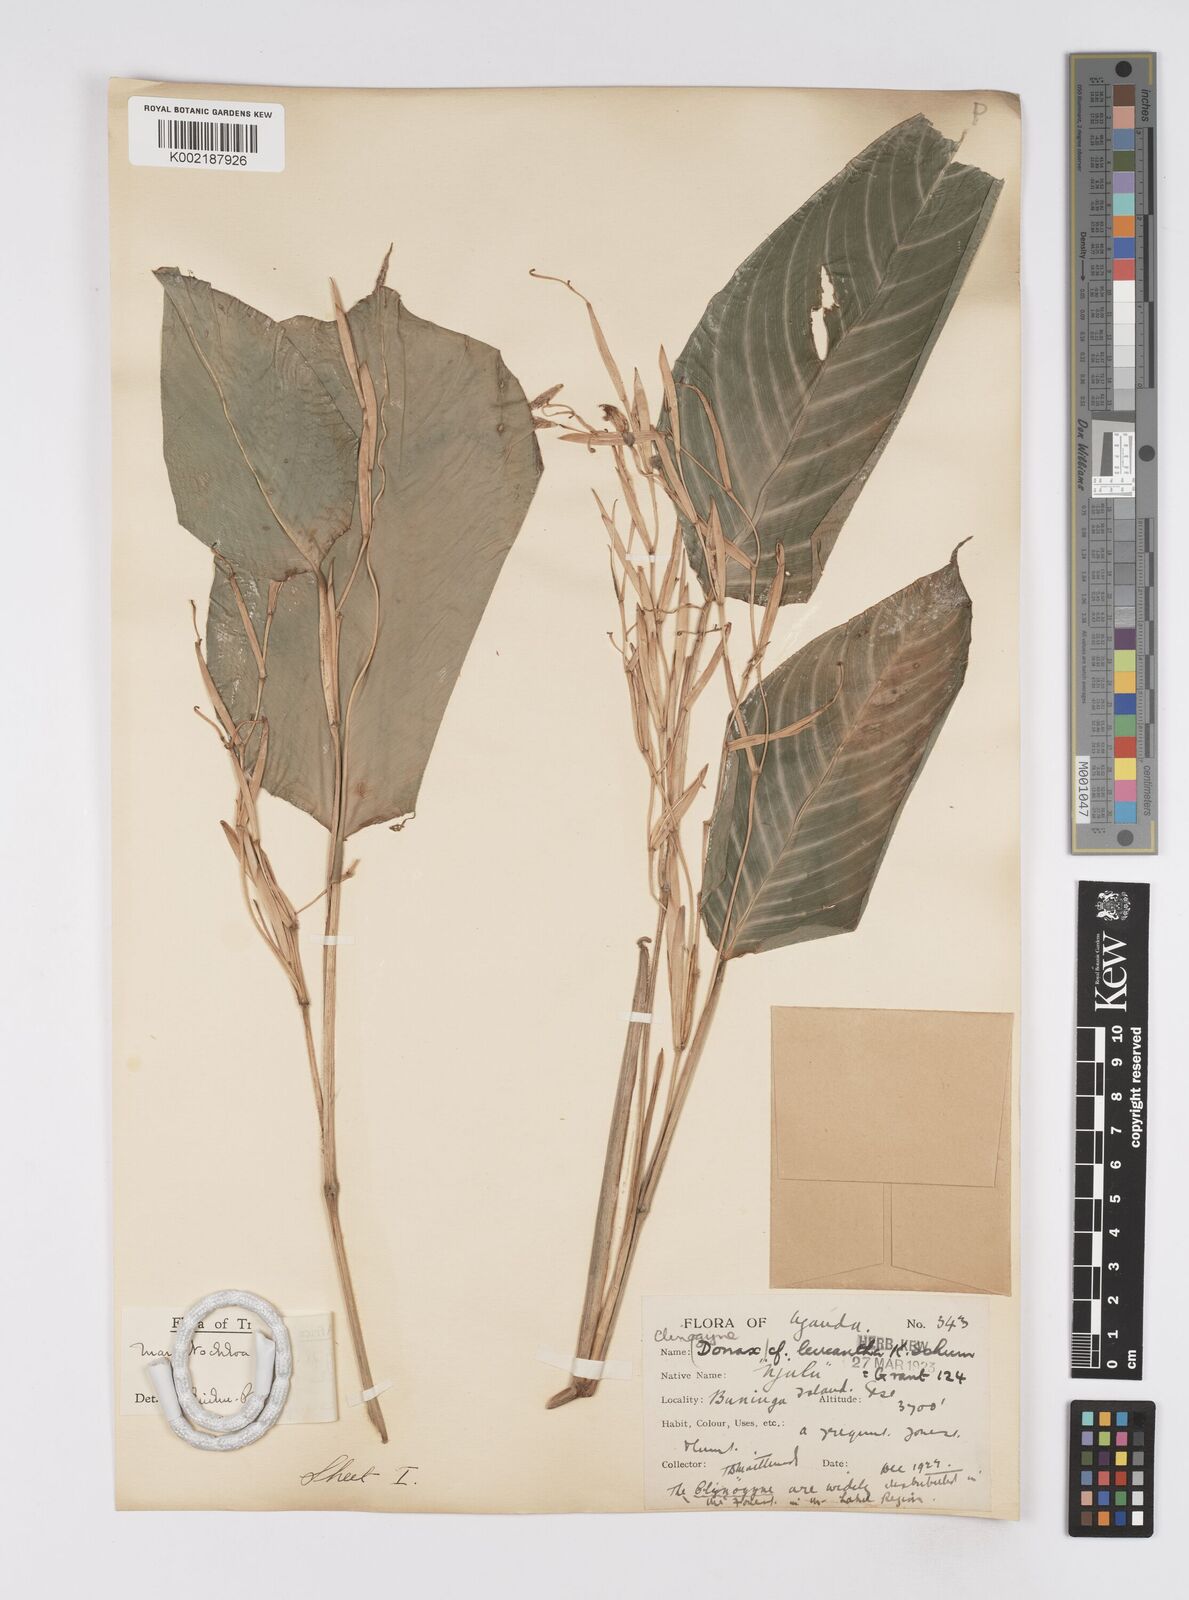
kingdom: Plantae
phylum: Tracheophyta
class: Liliopsida
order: Zingiberales
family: Marantaceae
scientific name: Marantaceae
